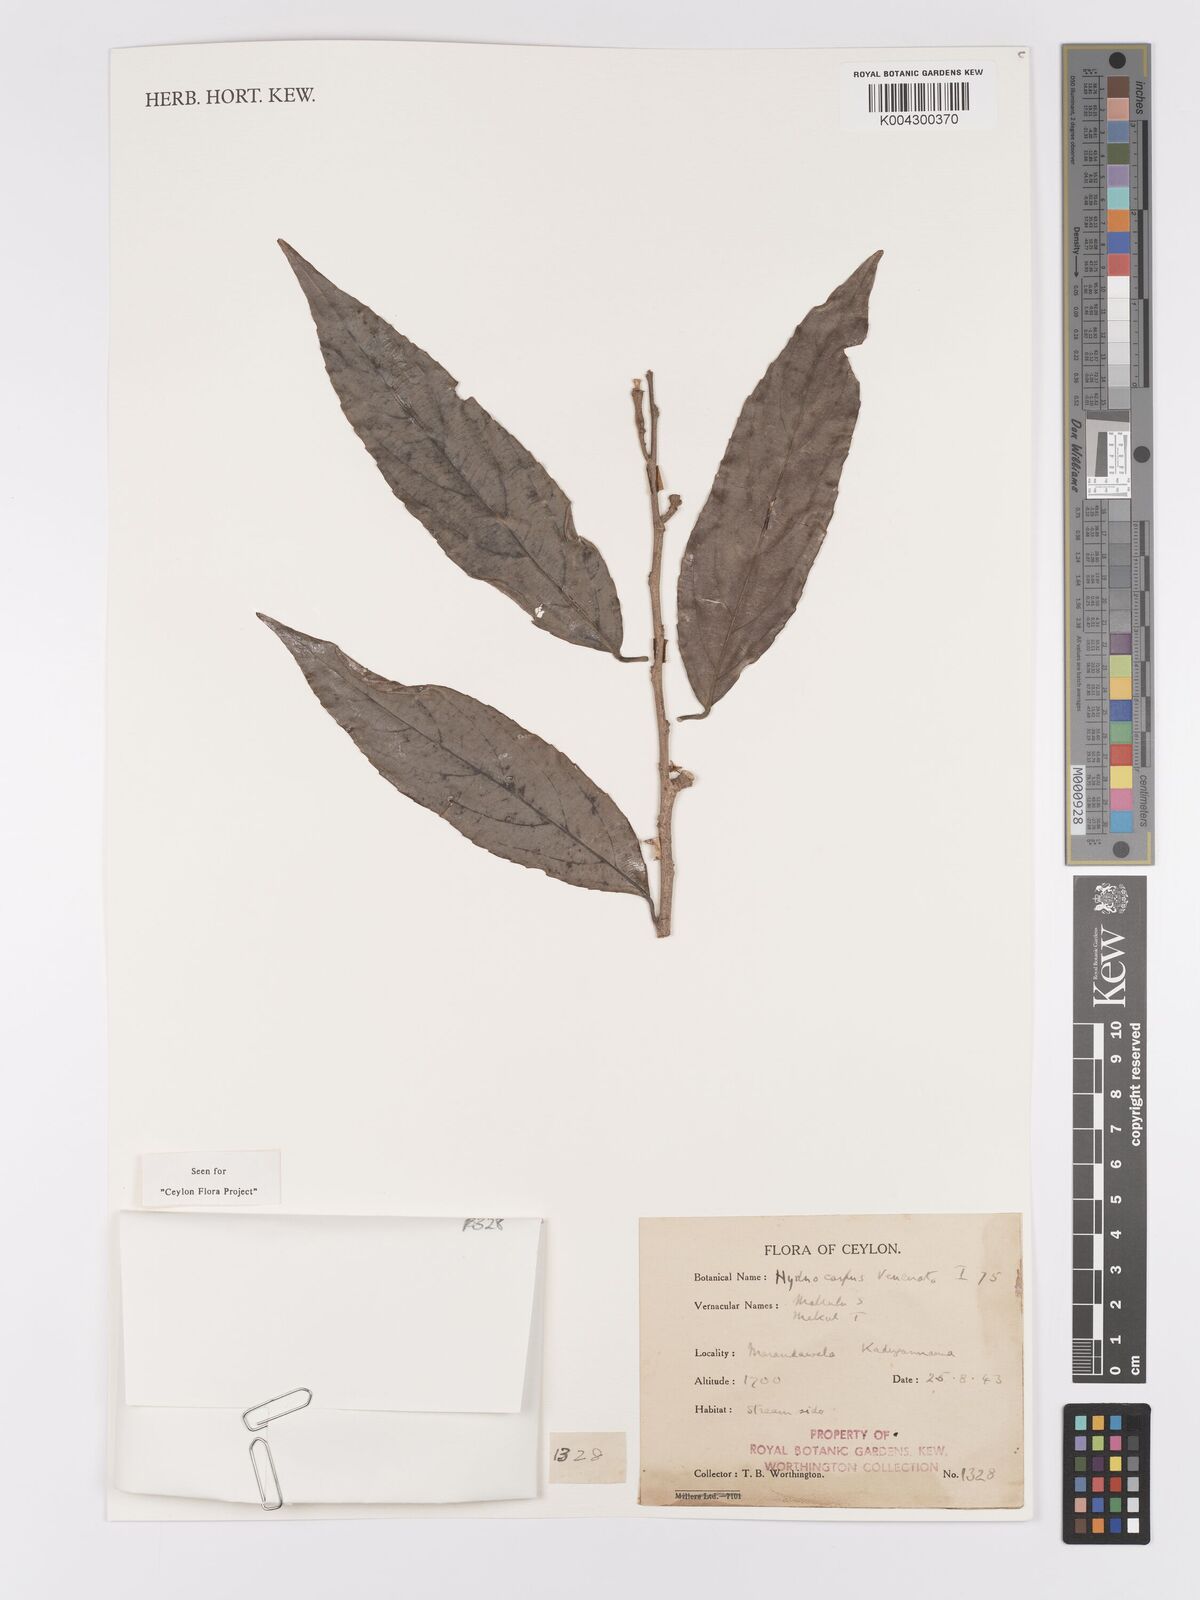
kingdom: Plantae
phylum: Tracheophyta
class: Magnoliopsida
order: Malpighiales
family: Achariaceae
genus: Hydnocarpus
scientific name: Hydnocarpus venenatus
